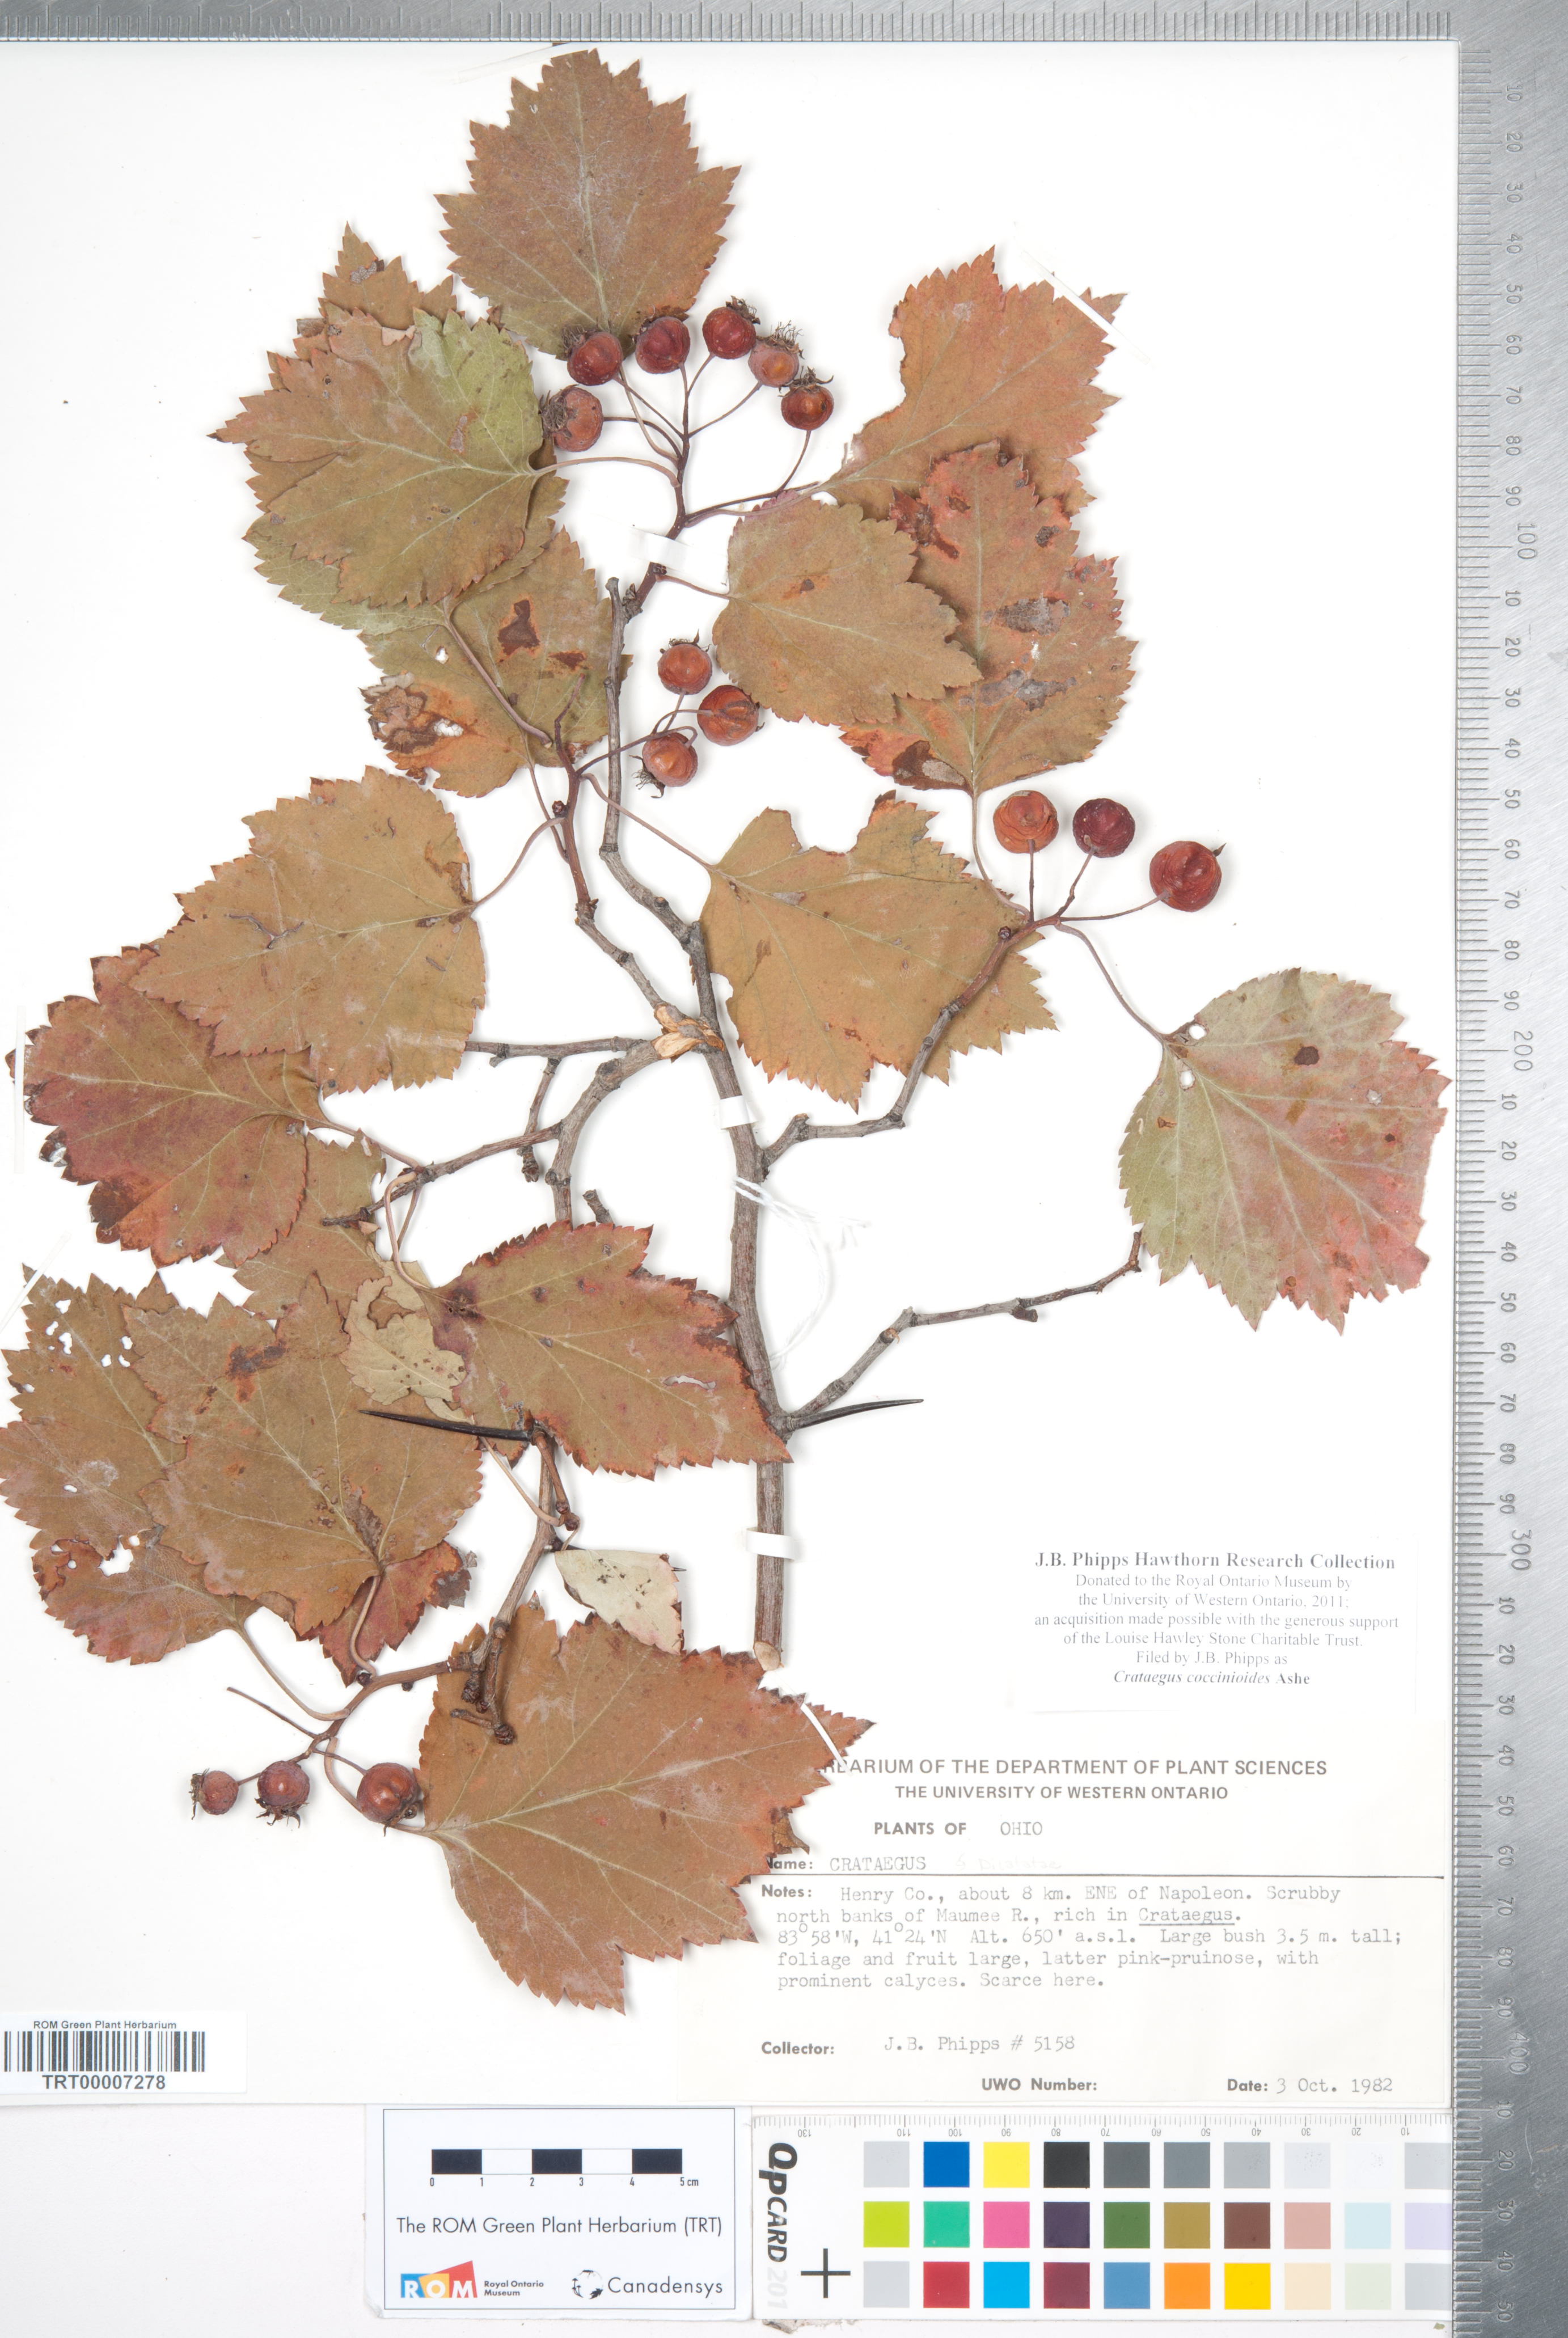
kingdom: Plantae
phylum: Tracheophyta
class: Magnoliopsida
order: Rosales
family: Rosaceae
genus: Crataegus
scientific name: Crataegus coccinioides
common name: Large-flowered cockspurthorn
